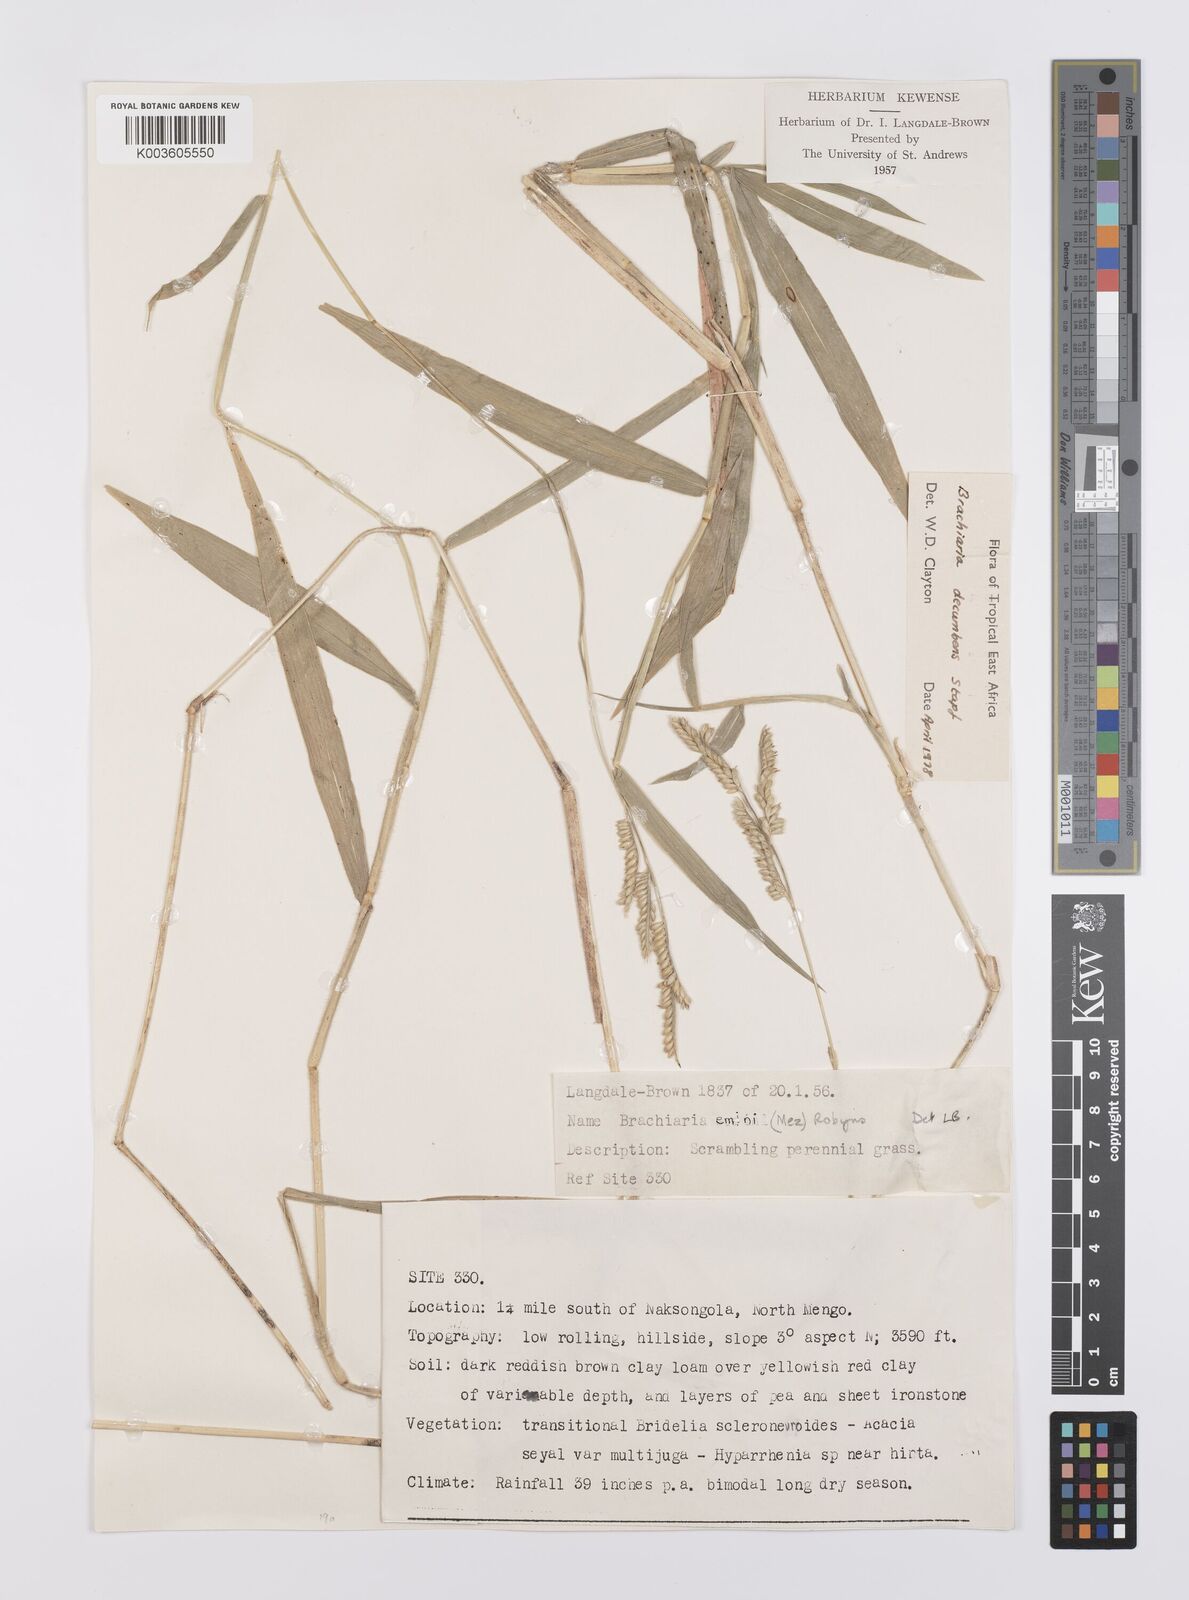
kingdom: Plantae
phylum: Tracheophyta
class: Liliopsida
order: Poales
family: Poaceae
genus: Urochloa
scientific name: Urochloa eminii
